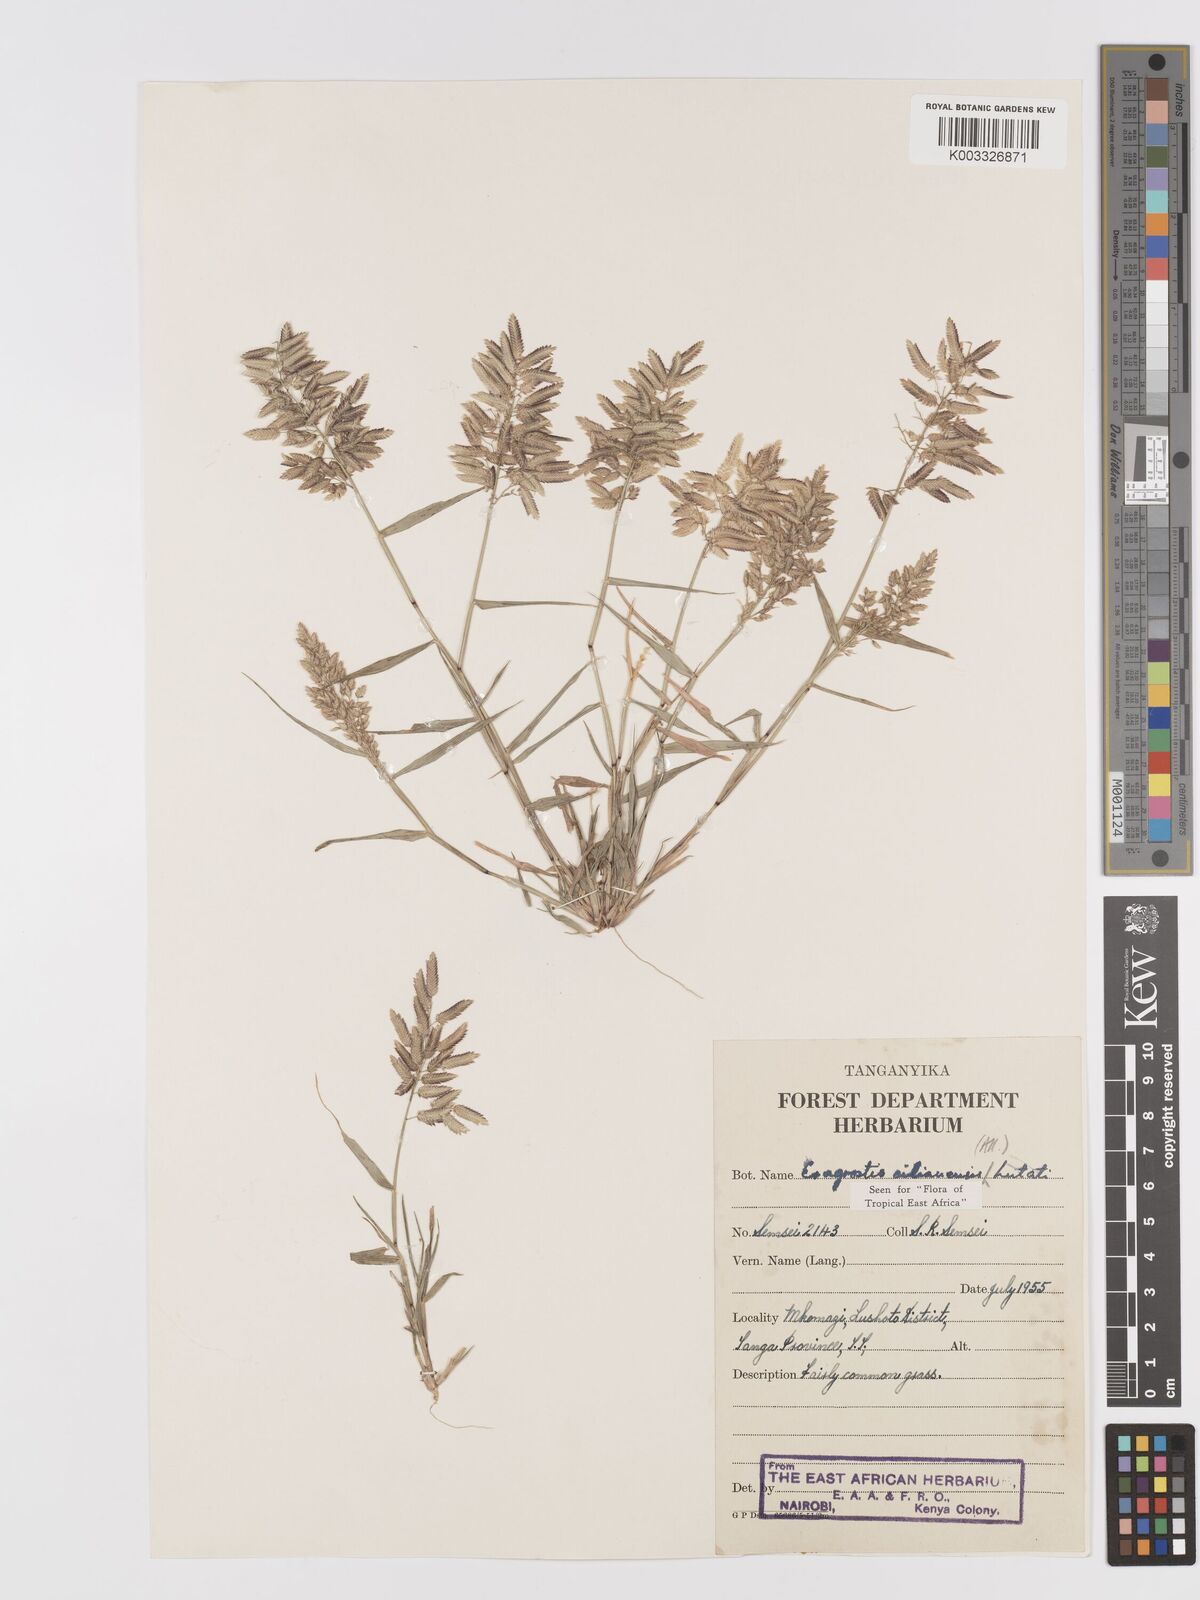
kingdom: Plantae
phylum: Tracheophyta
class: Liliopsida
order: Poales
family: Poaceae
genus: Eragrostis
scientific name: Eragrostis cilianensis
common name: Stinkgrass
